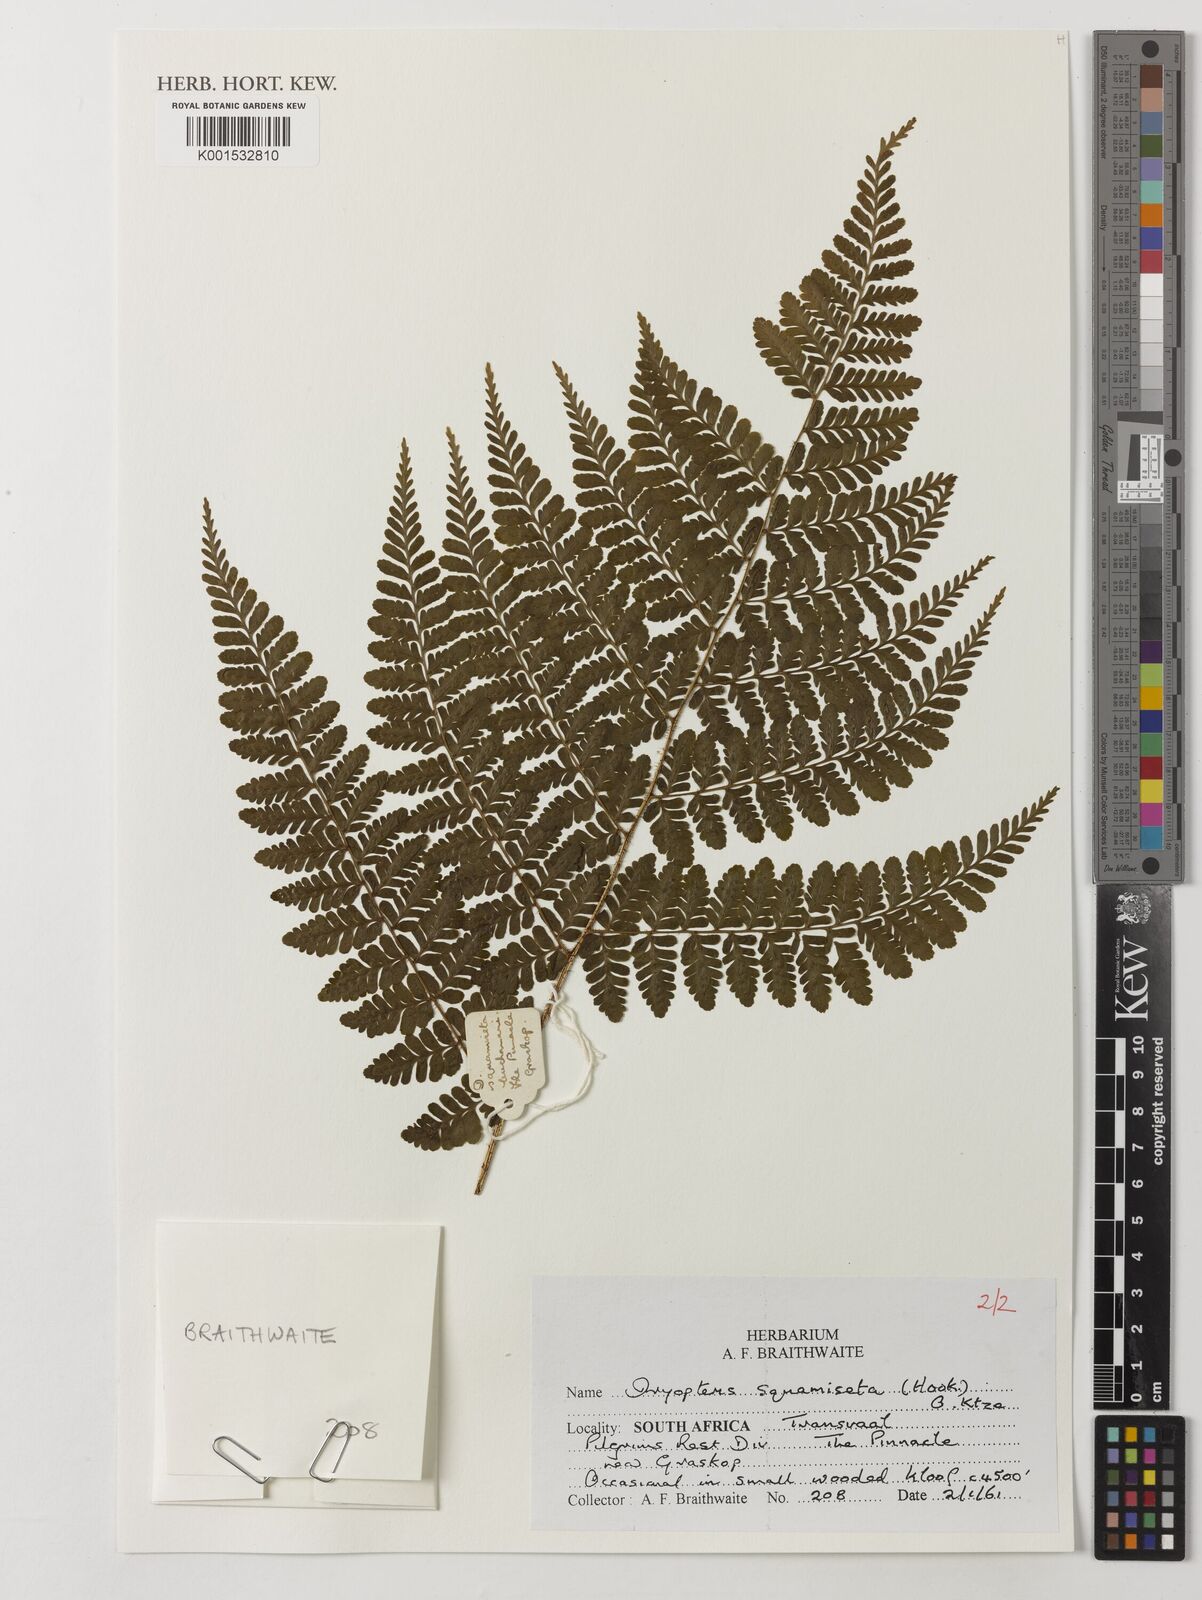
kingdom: Plantae
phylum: Tracheophyta
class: Polypodiopsida
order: Polypodiales
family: Dryopteridaceae
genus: Dryopteris
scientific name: Dryopteris squamiseta
